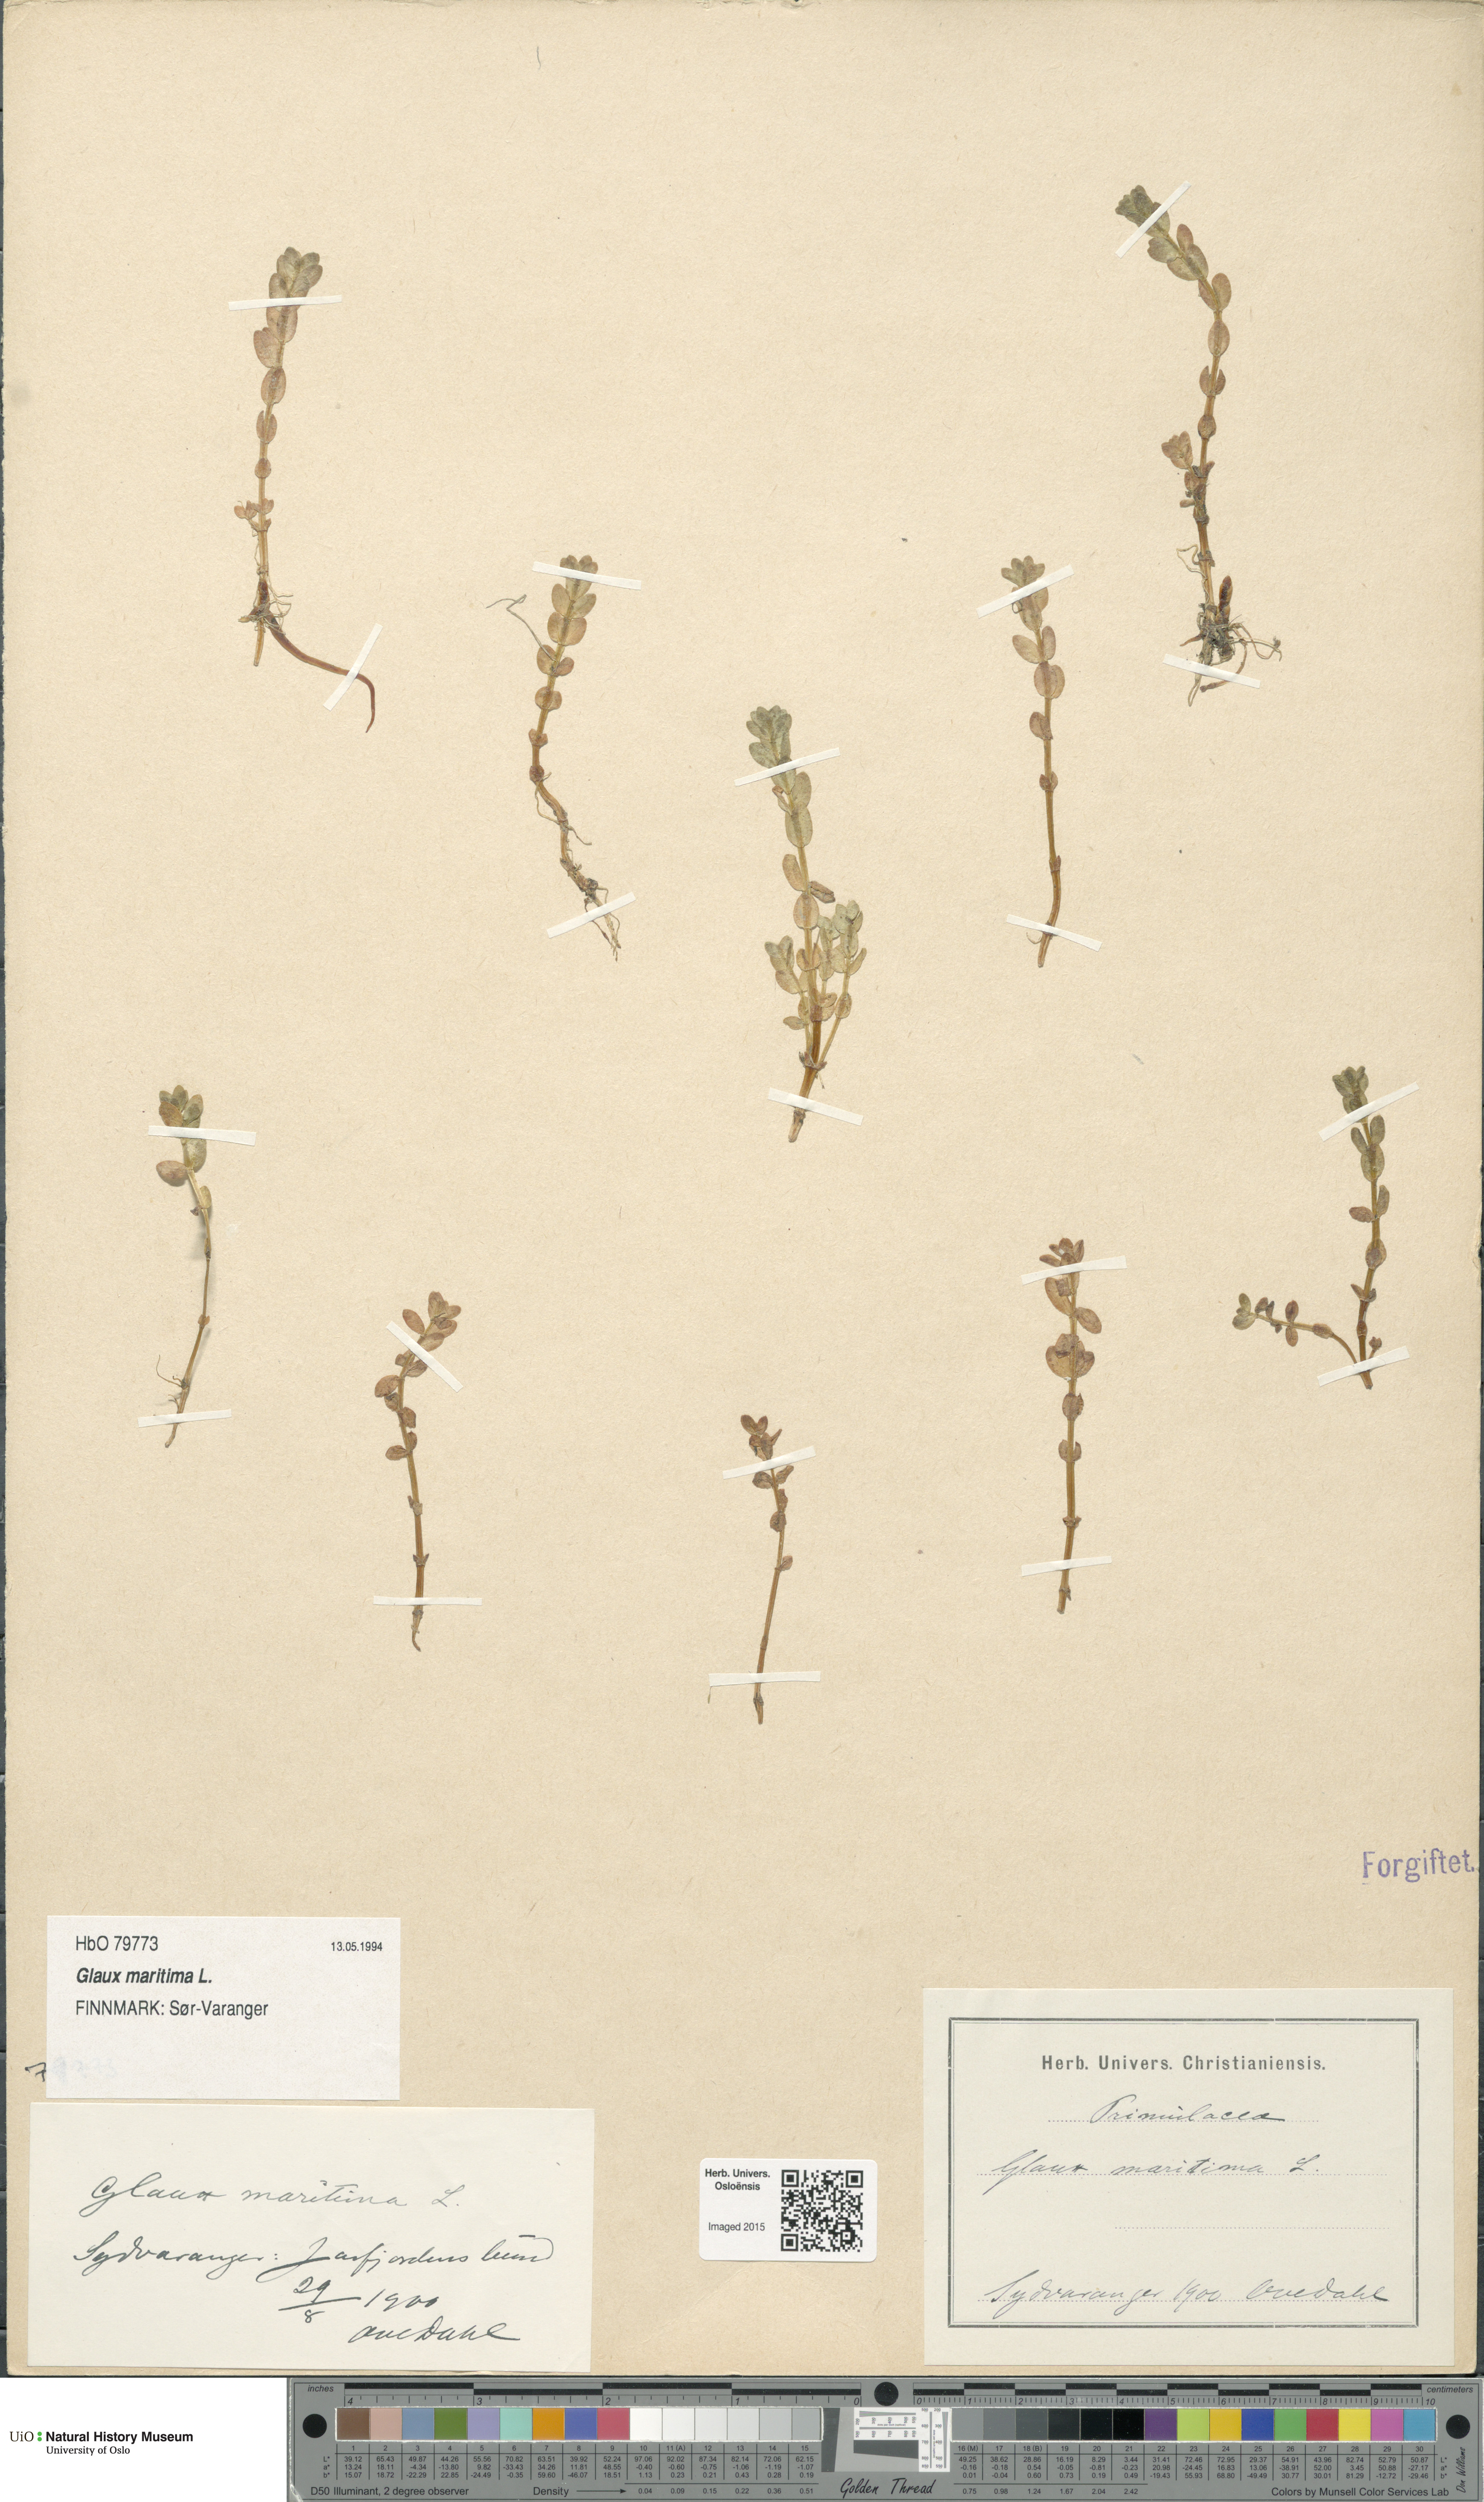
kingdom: Plantae
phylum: Tracheophyta
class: Magnoliopsida
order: Ericales
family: Primulaceae
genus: Lysimachia
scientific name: Lysimachia maritima
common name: Sea milkwort
